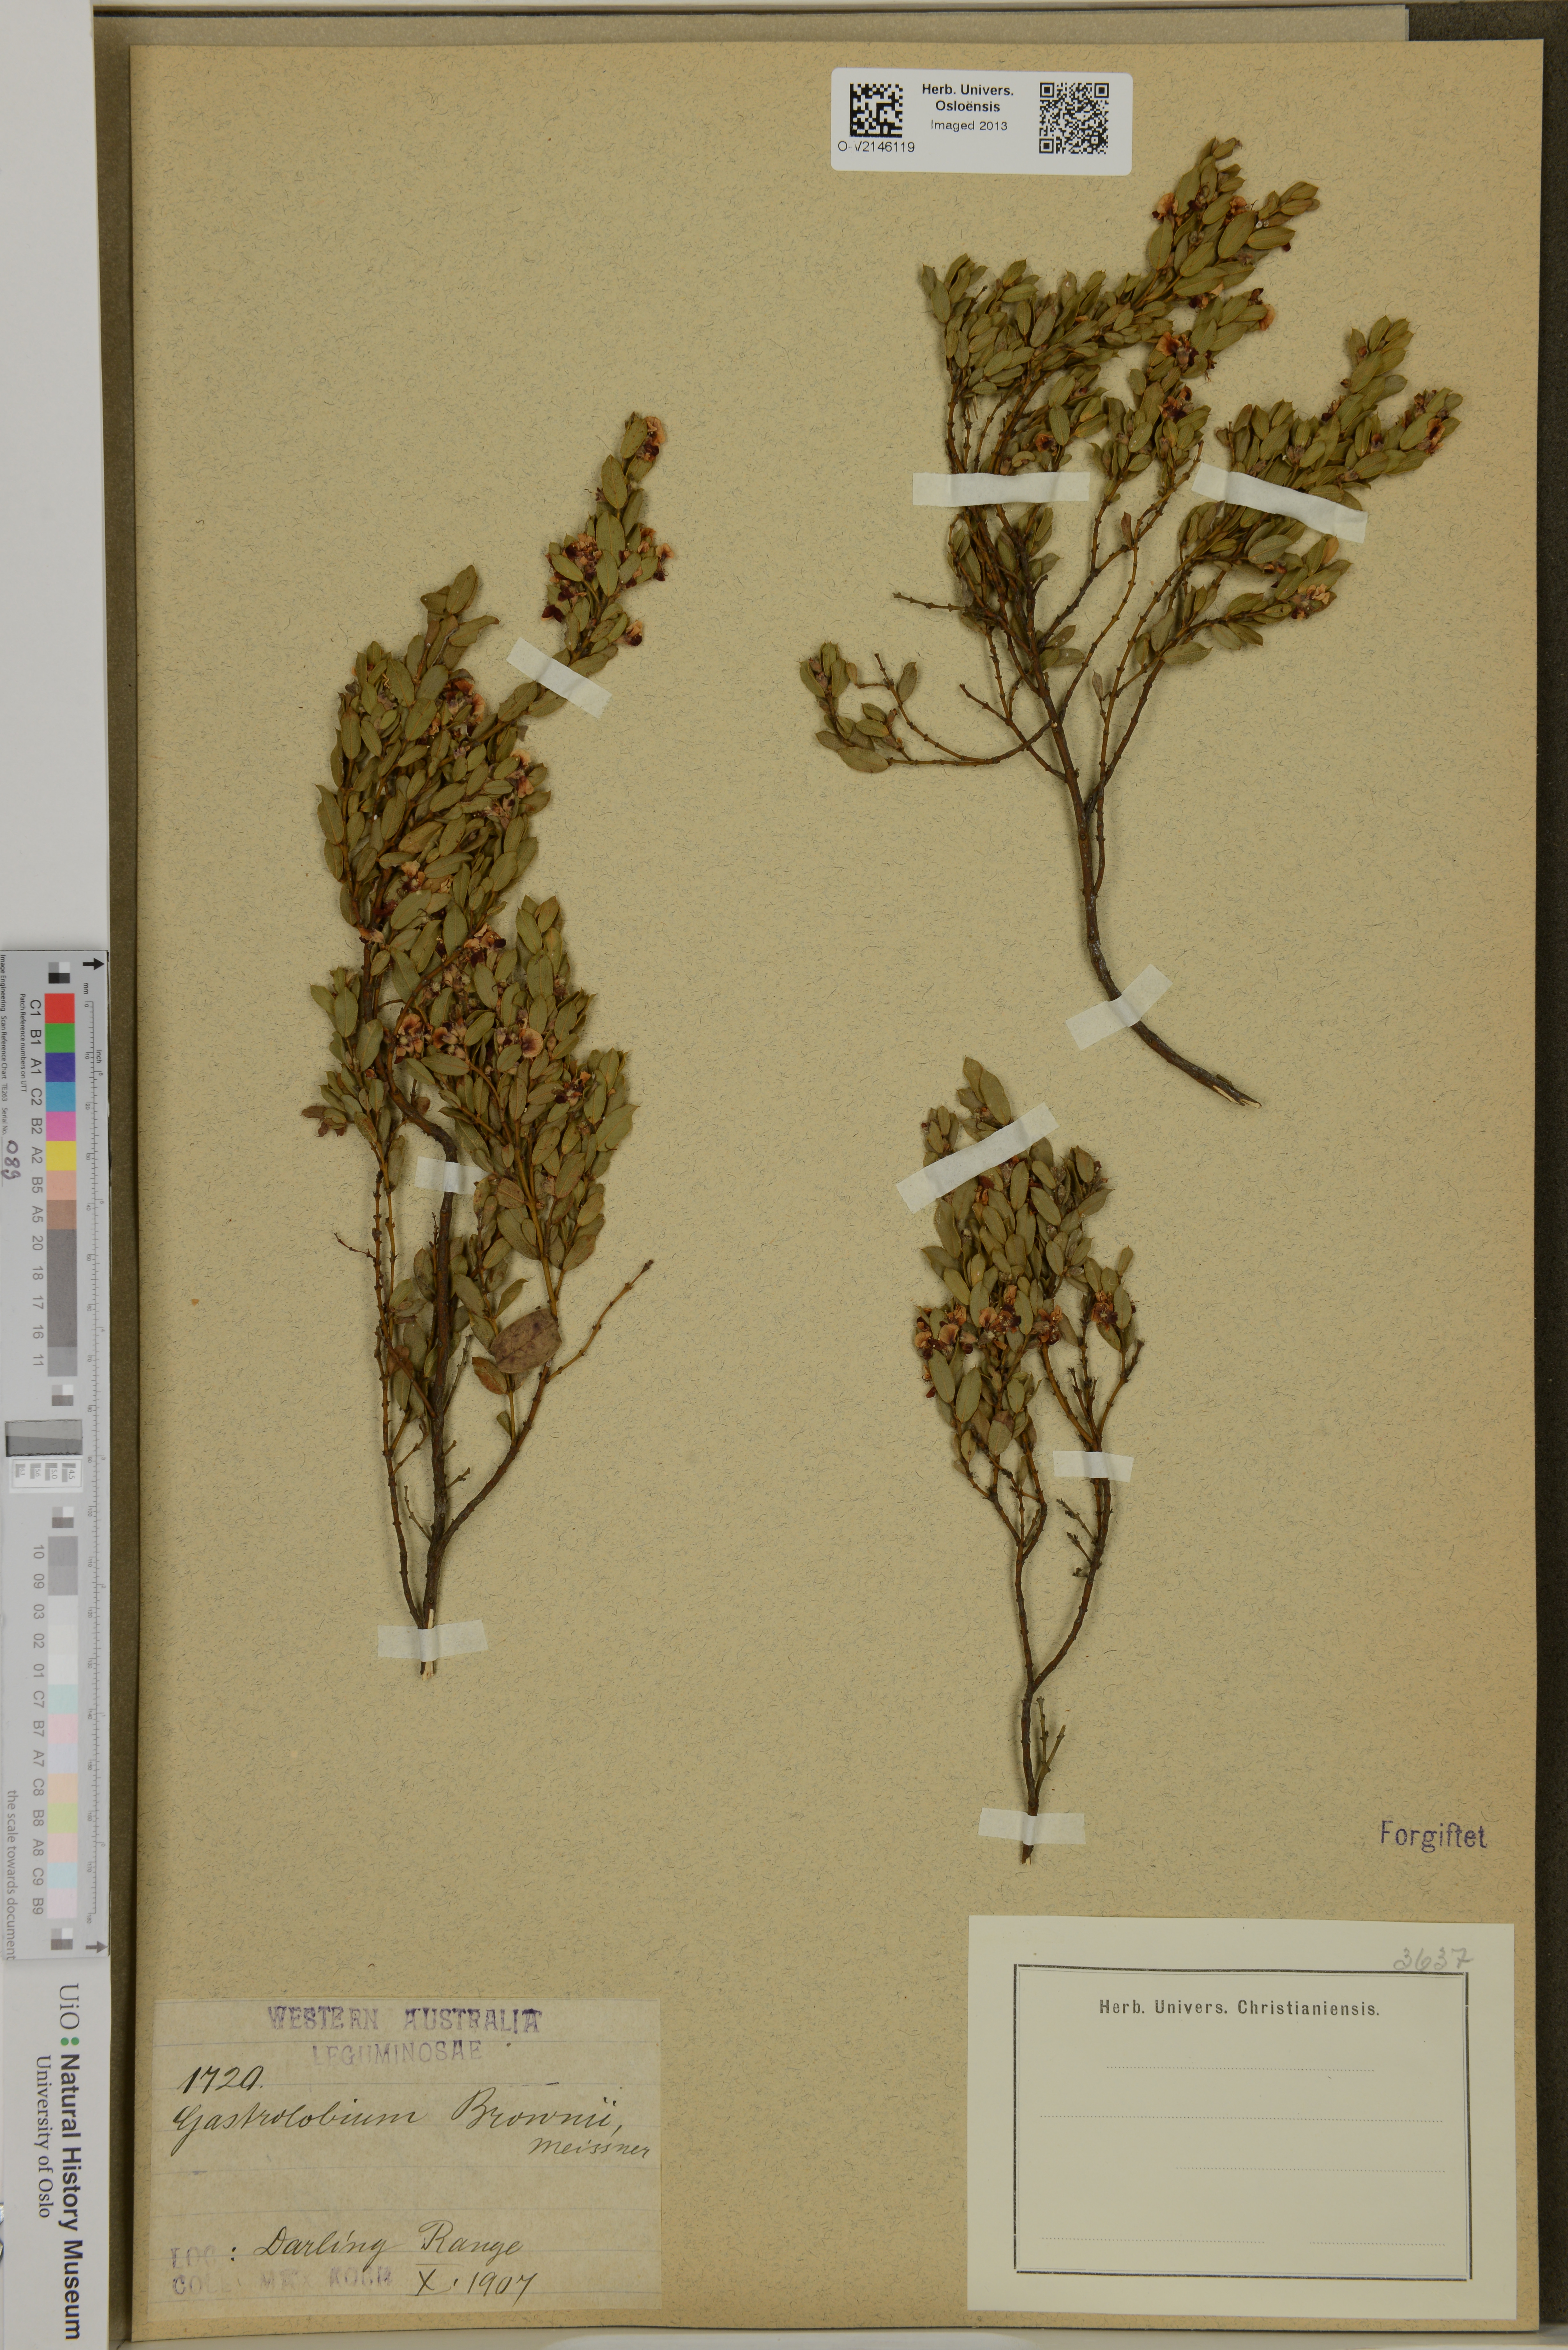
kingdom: Plantae
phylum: Tracheophyta
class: Magnoliopsida
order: Fabales
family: Fabaceae
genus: Gastrolobium
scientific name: Gastrolobium brownii
